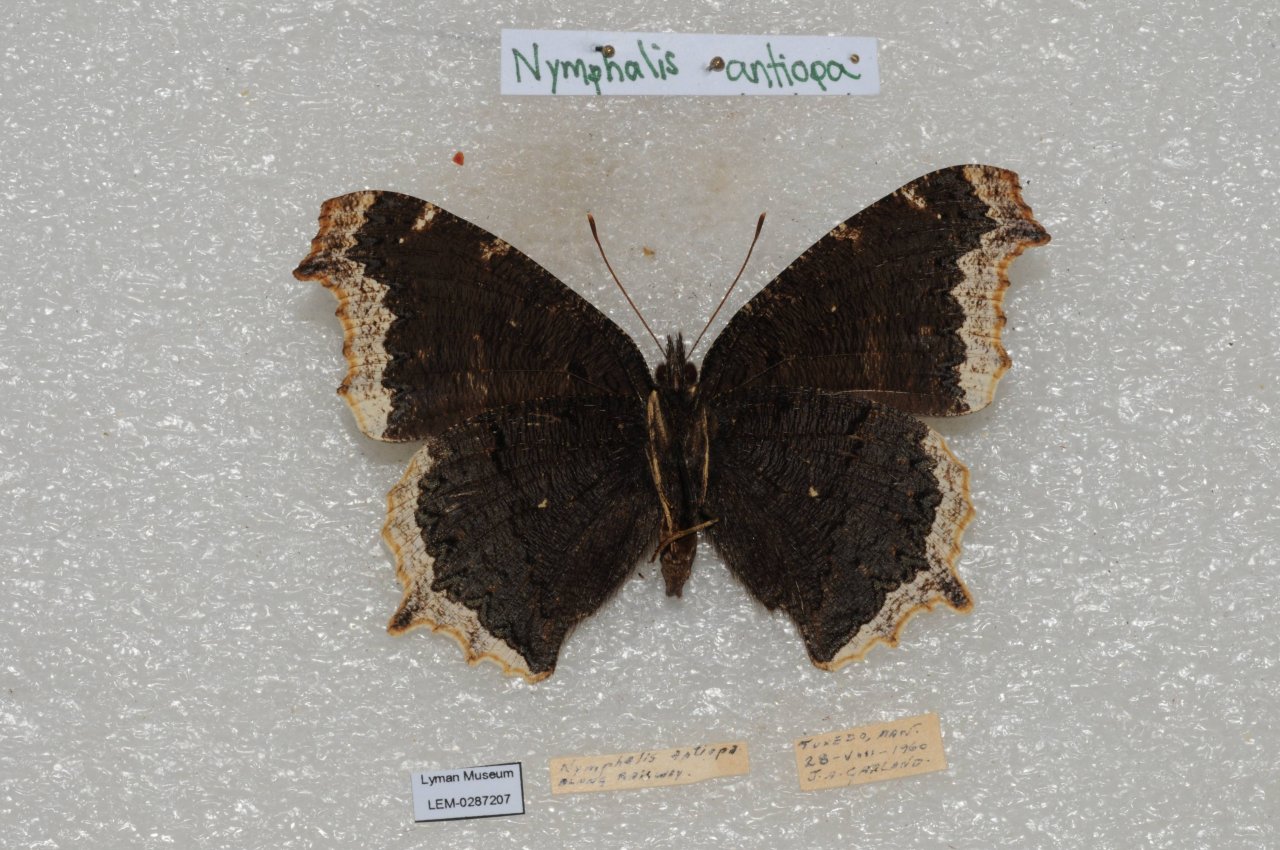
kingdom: Animalia
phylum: Arthropoda
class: Insecta
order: Lepidoptera
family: Nymphalidae
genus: Nymphalis
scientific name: Nymphalis antiopa
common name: Mourning Cloak
